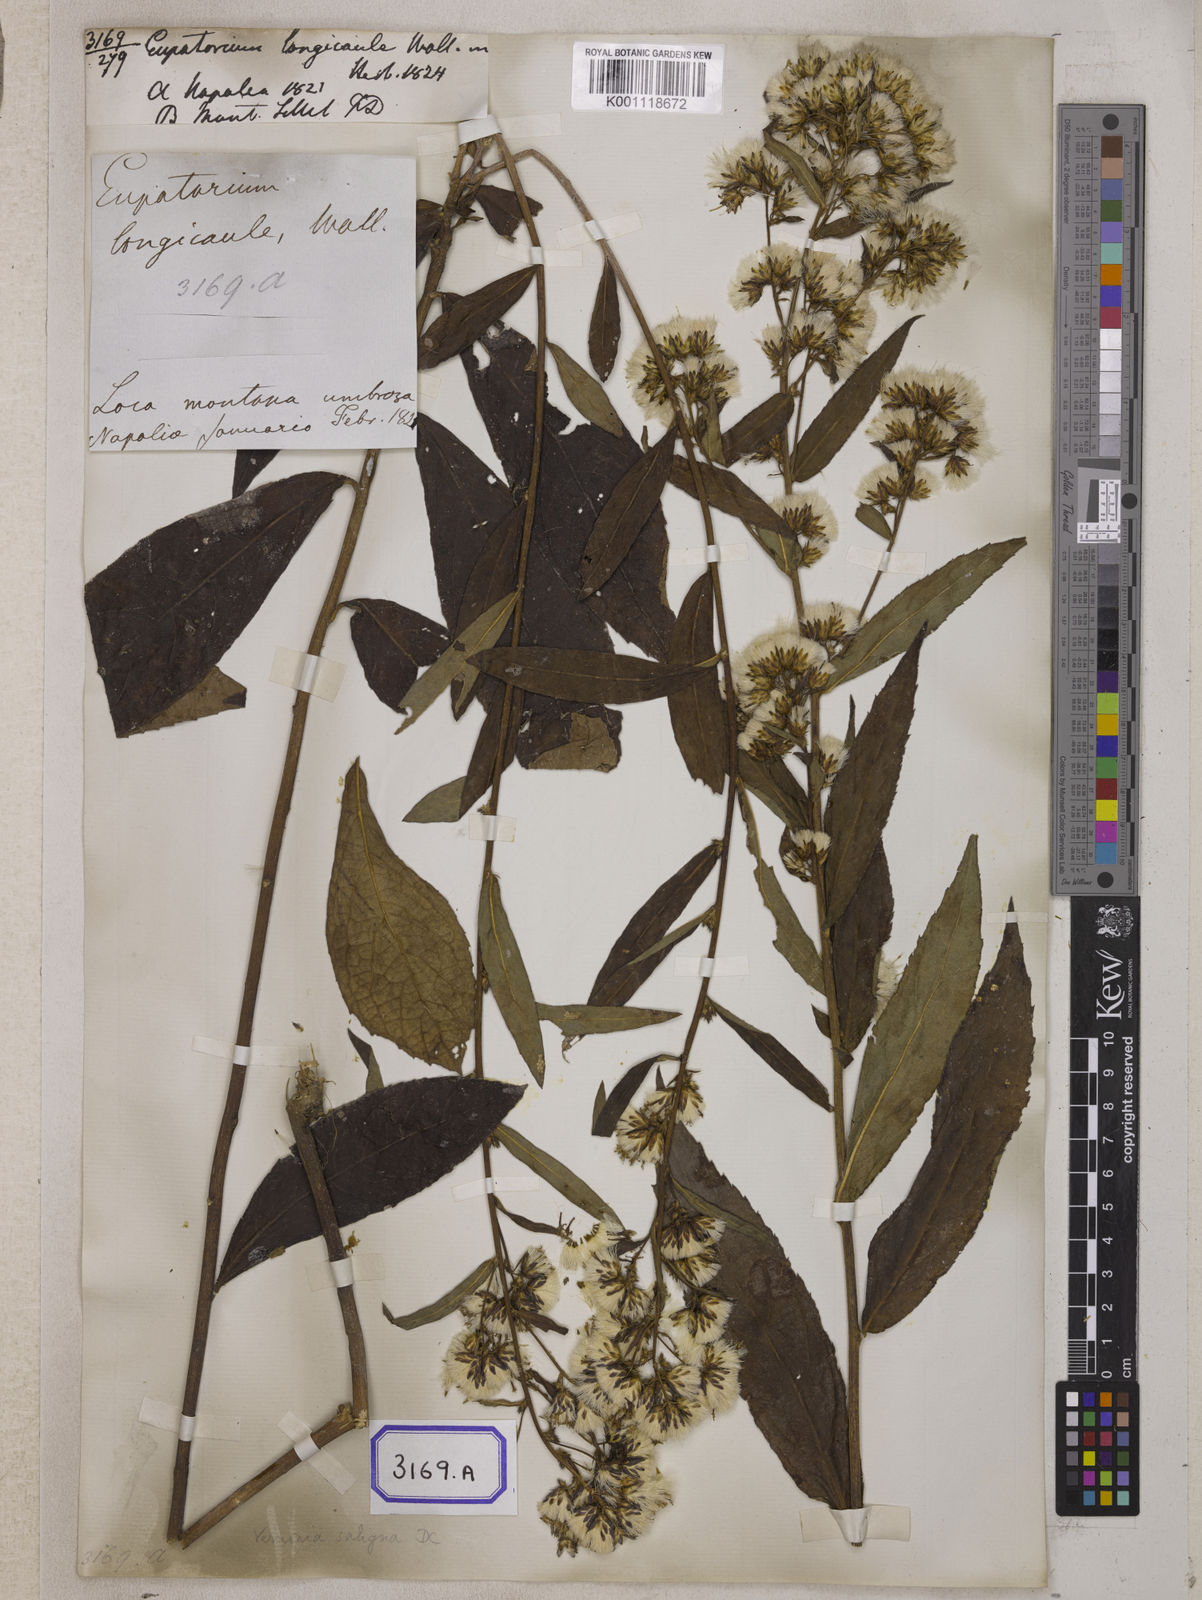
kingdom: Plantae
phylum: Tracheophyta
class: Magnoliopsida
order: Asterales
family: Asteraceae
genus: Acilepis
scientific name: Acilepis saligna
